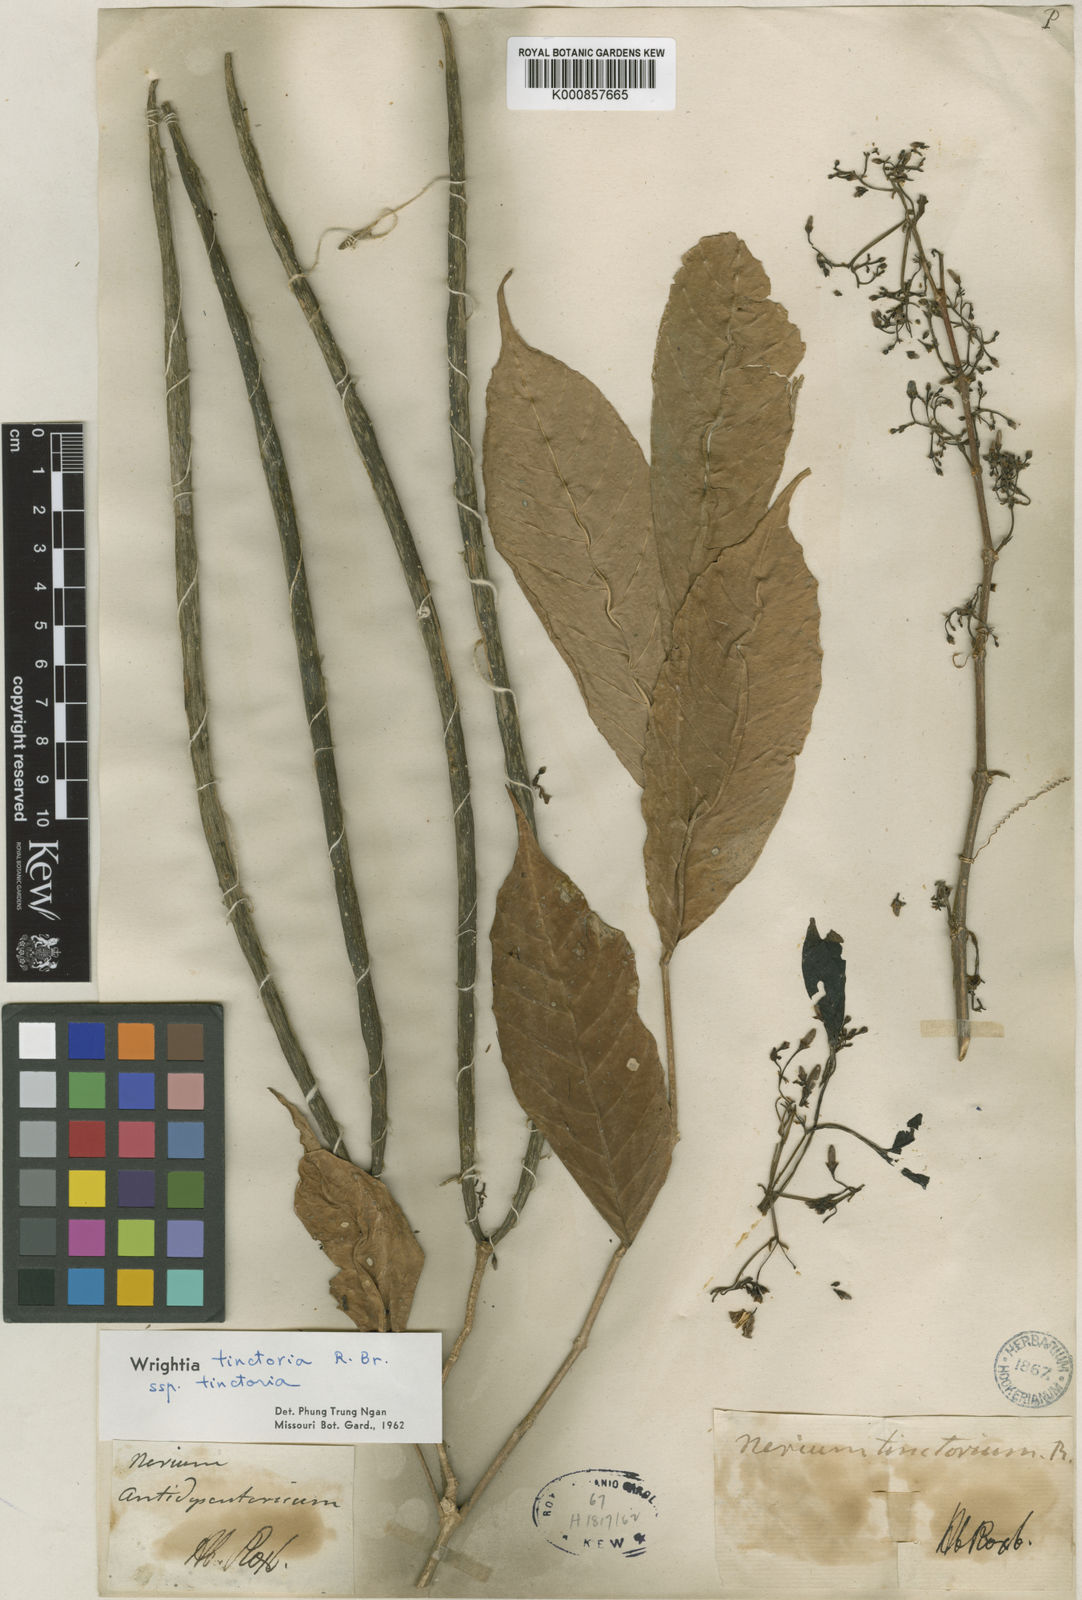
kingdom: Plantae
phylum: Tracheophyta
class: Magnoliopsida
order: Gentianales
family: Apocynaceae
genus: Wrightia
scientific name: Wrightia tinctoria
